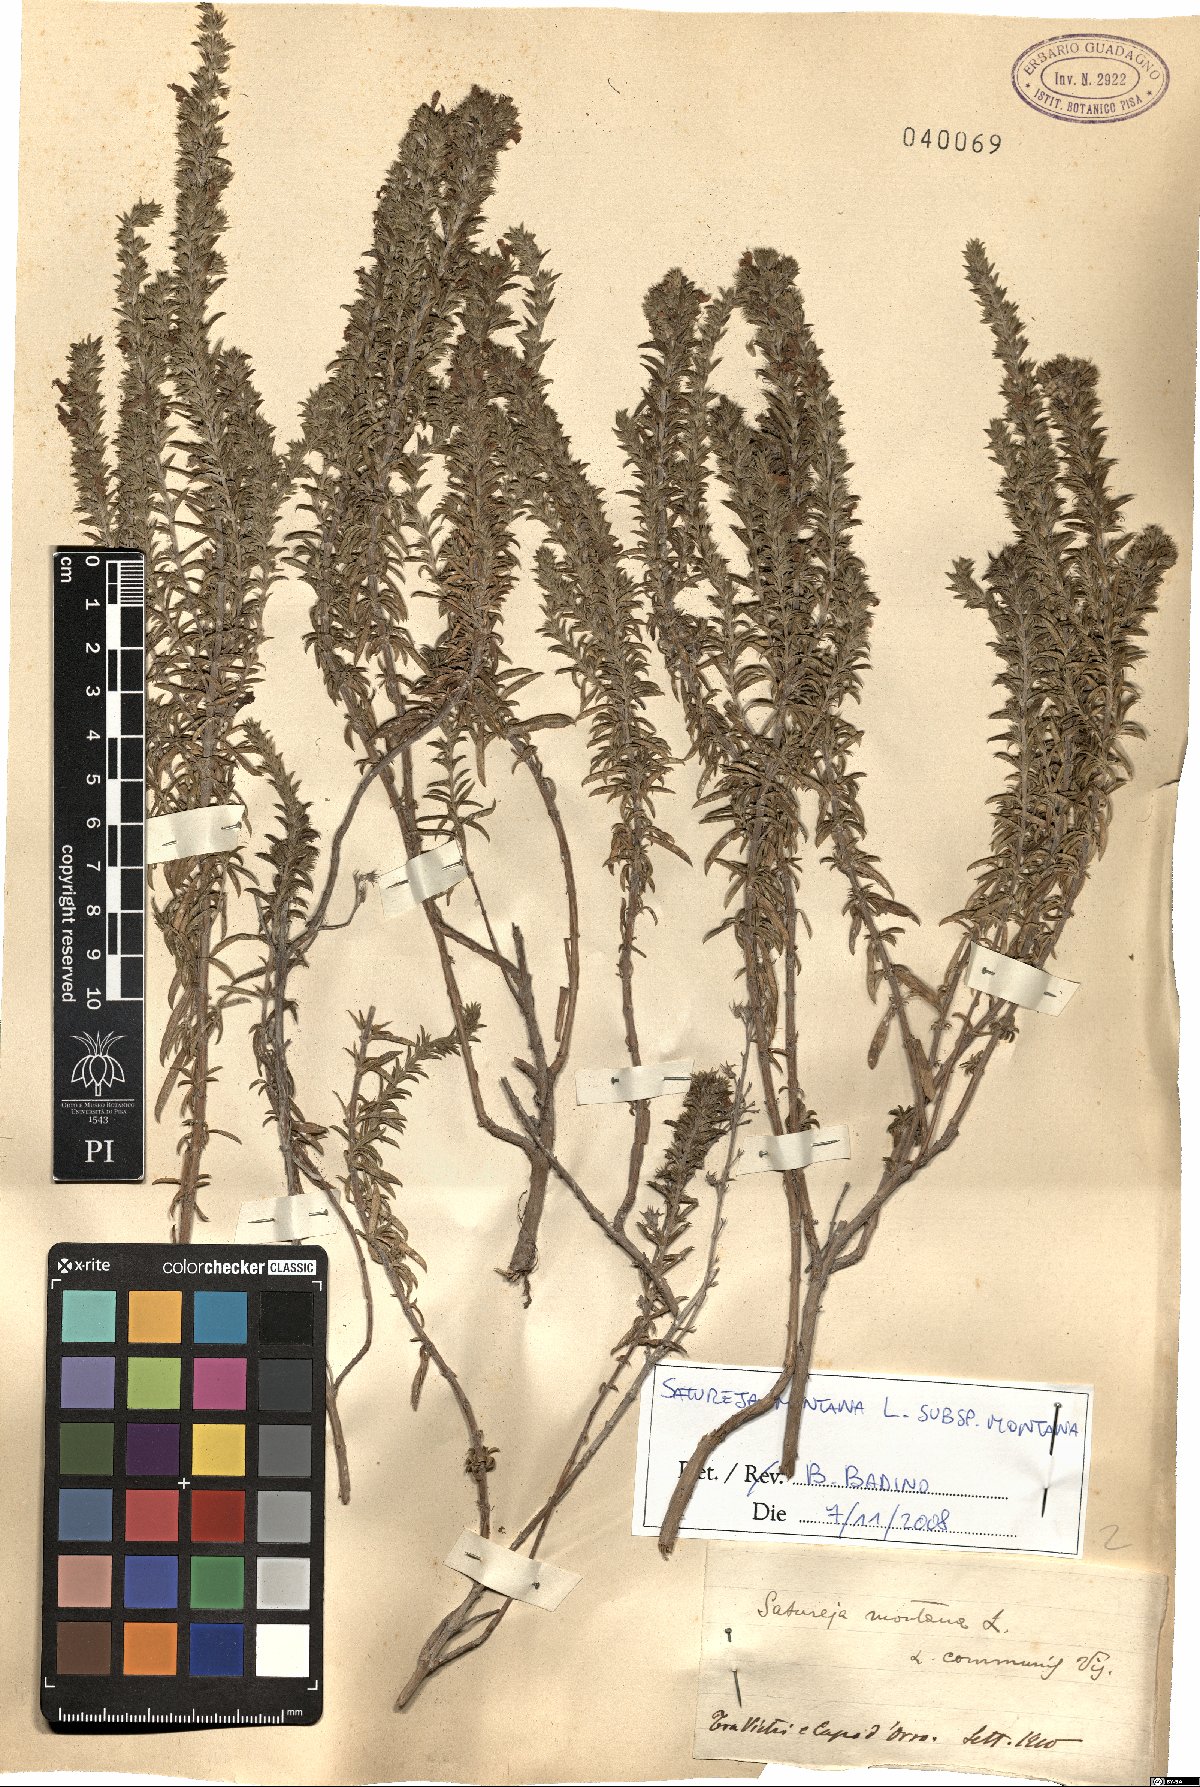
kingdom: Plantae
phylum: Tracheophyta
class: Magnoliopsida
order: Lamiales
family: Lamiaceae
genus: Satureja
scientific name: Satureja montana
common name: Winter savory
